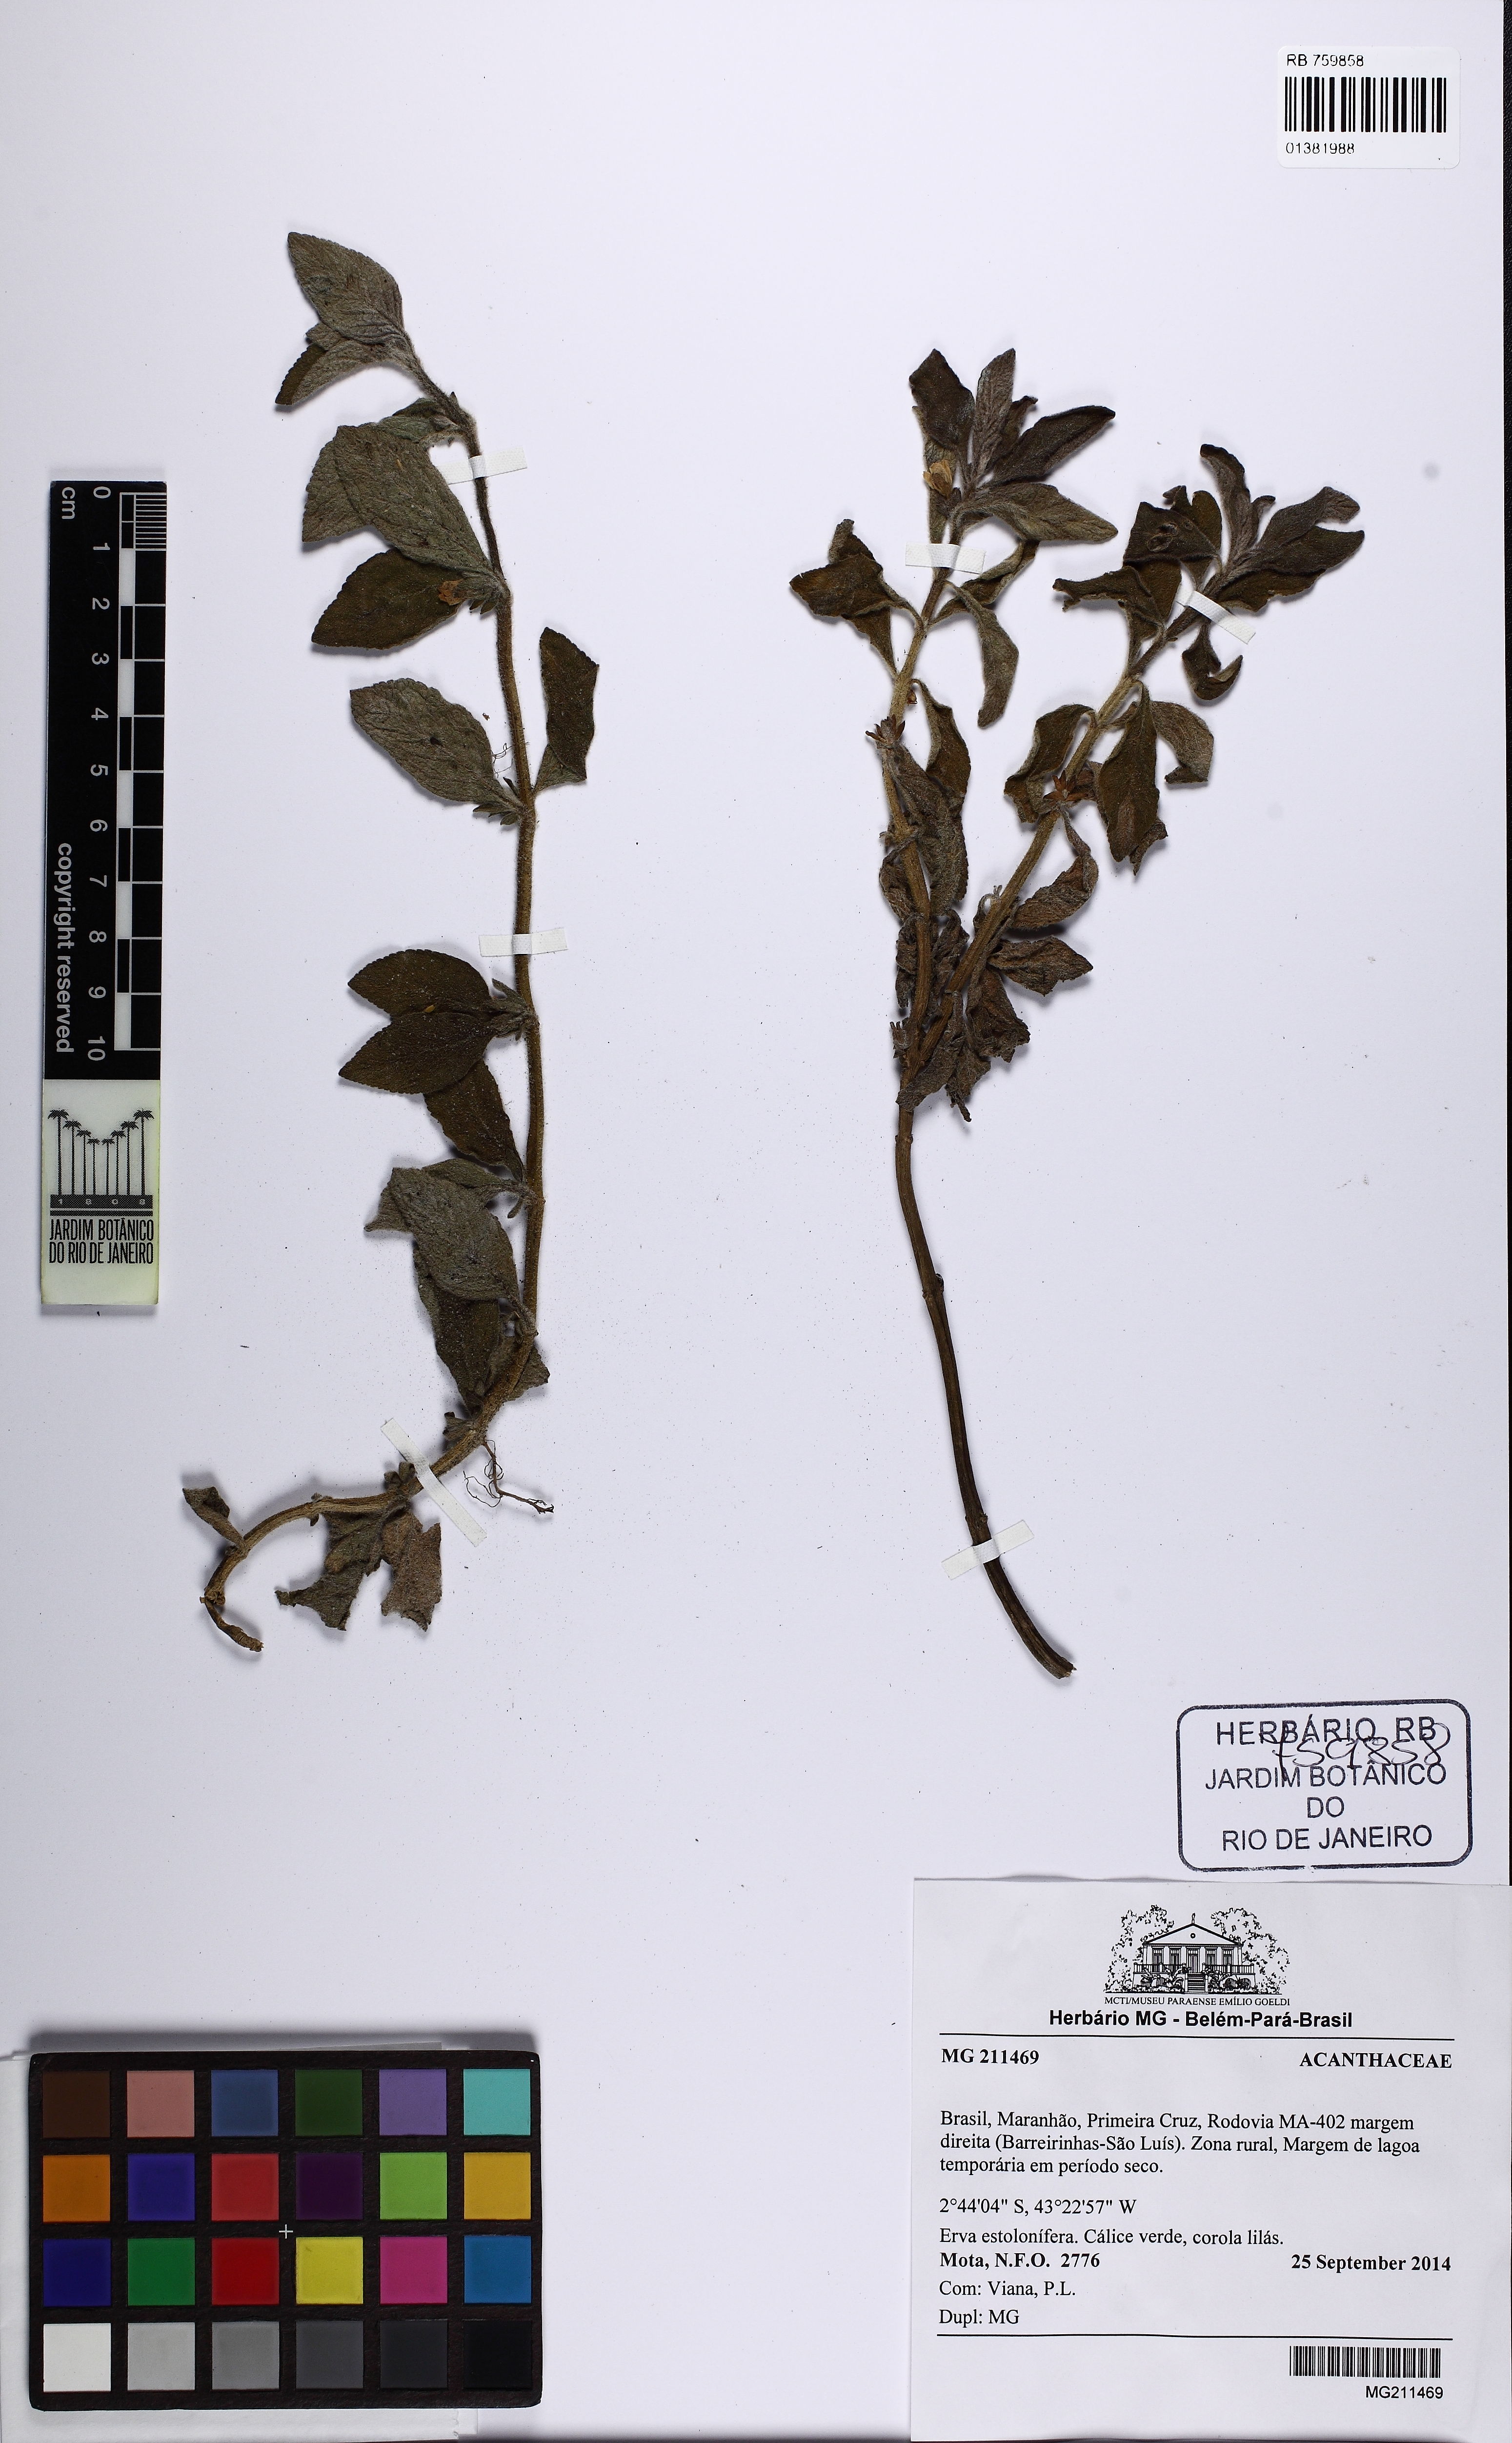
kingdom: Plantae
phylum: Tracheophyta
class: Magnoliopsida
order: Lamiales
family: Acanthaceae
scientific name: Acanthaceae
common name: Acanthaceae
